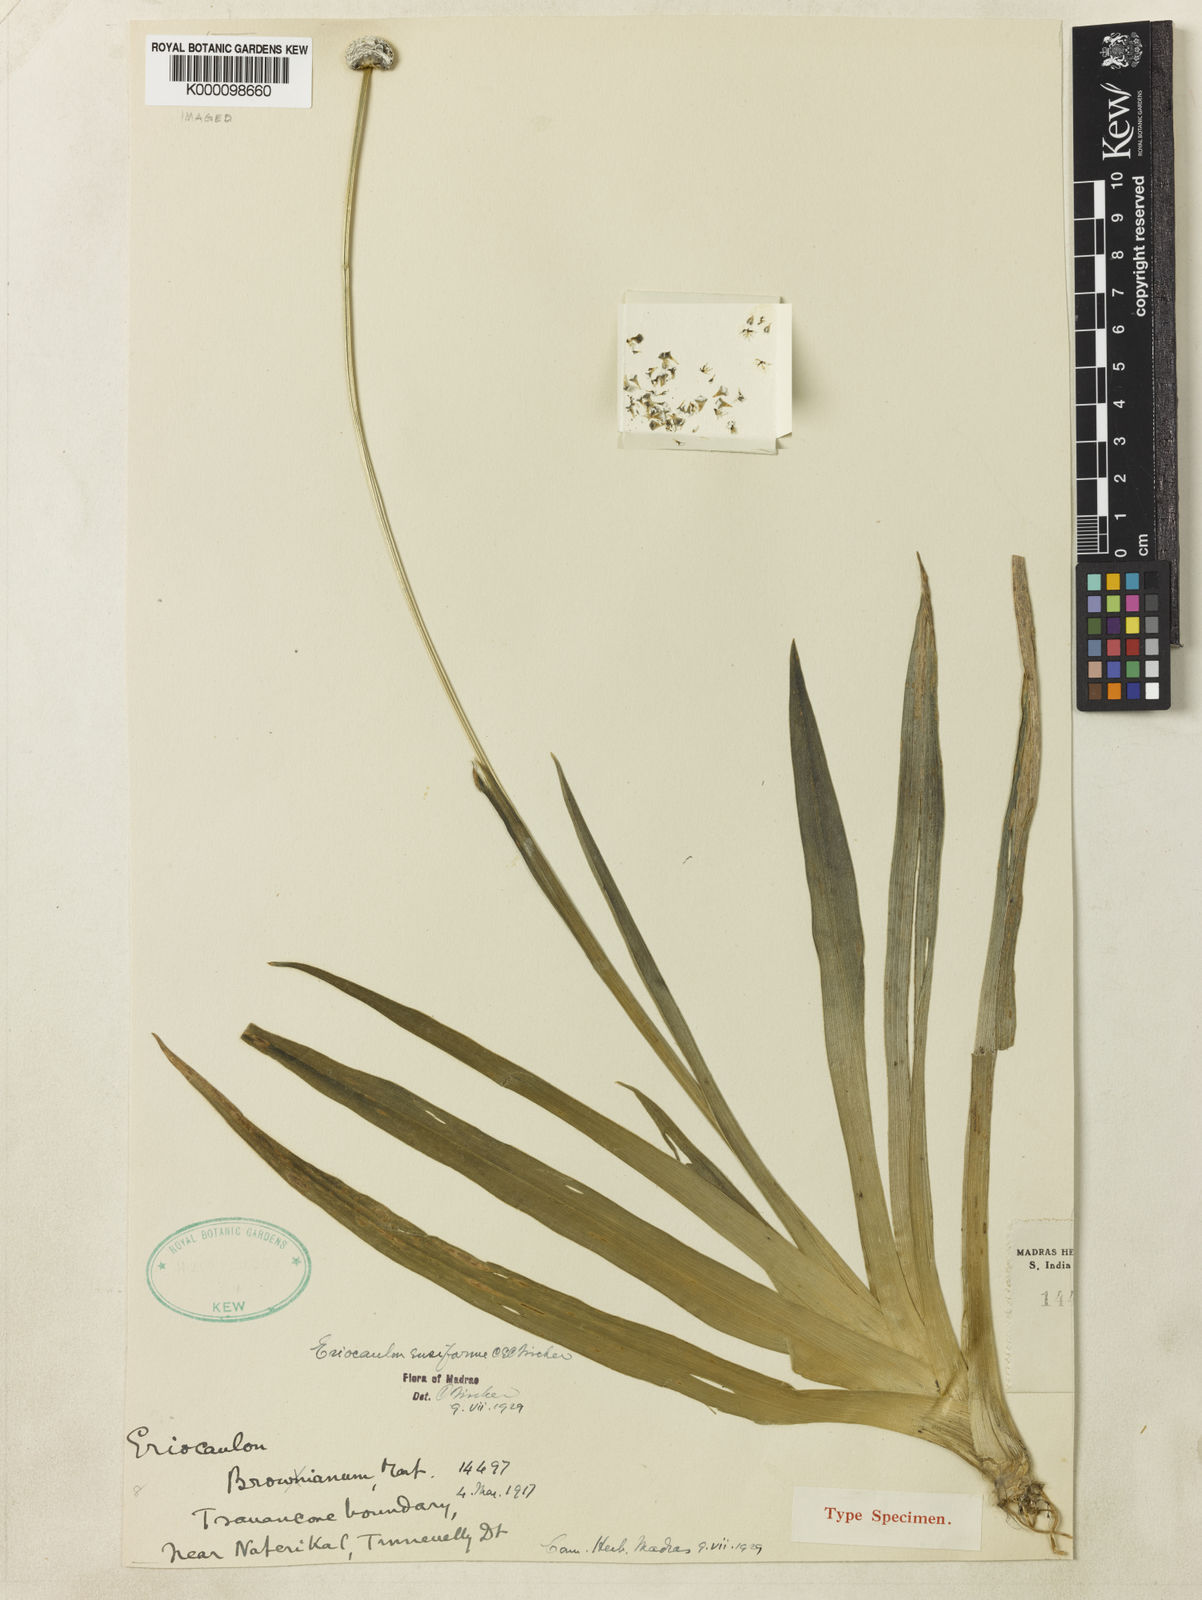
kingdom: Plantae
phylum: Tracheophyta
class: Liliopsida
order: Poales
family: Eriocaulaceae
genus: Eriocaulon
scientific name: Eriocaulon ensiforme
